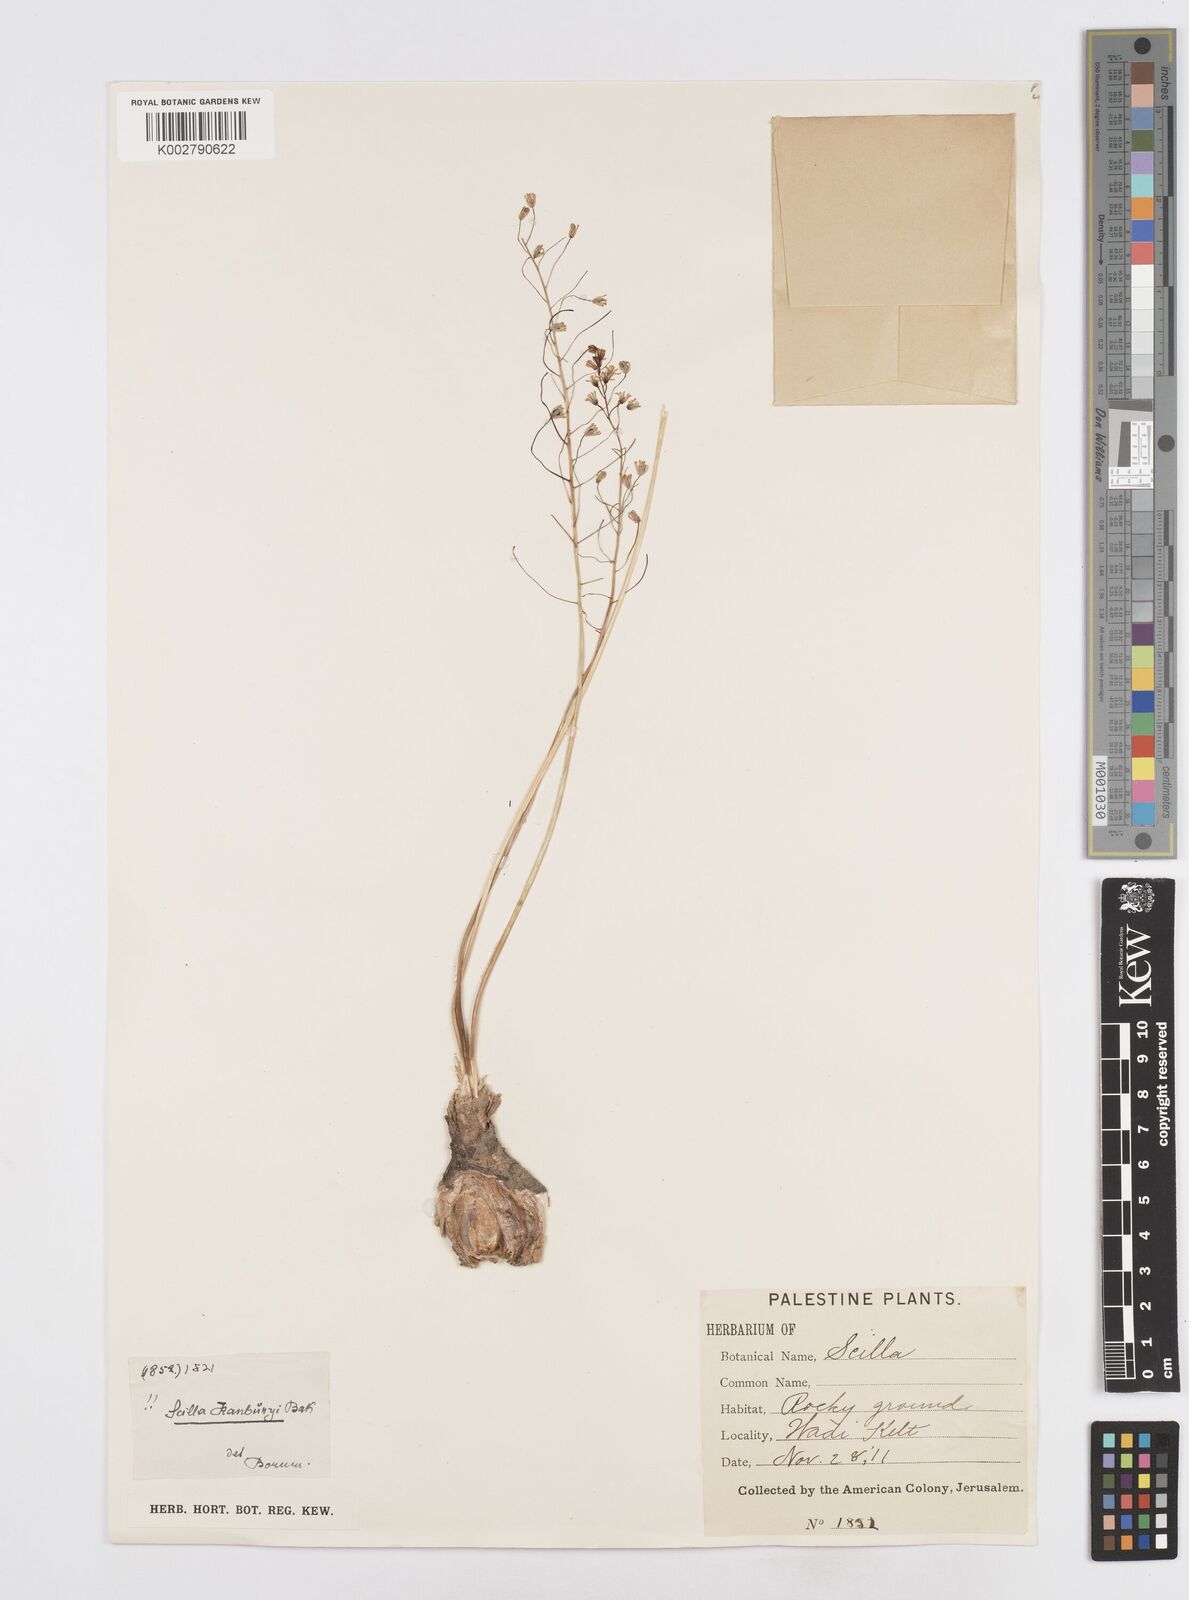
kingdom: Plantae
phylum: Tracheophyta
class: Liliopsida
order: Asparagales
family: Asparagaceae
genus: Prospero
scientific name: Prospero hanburyi
